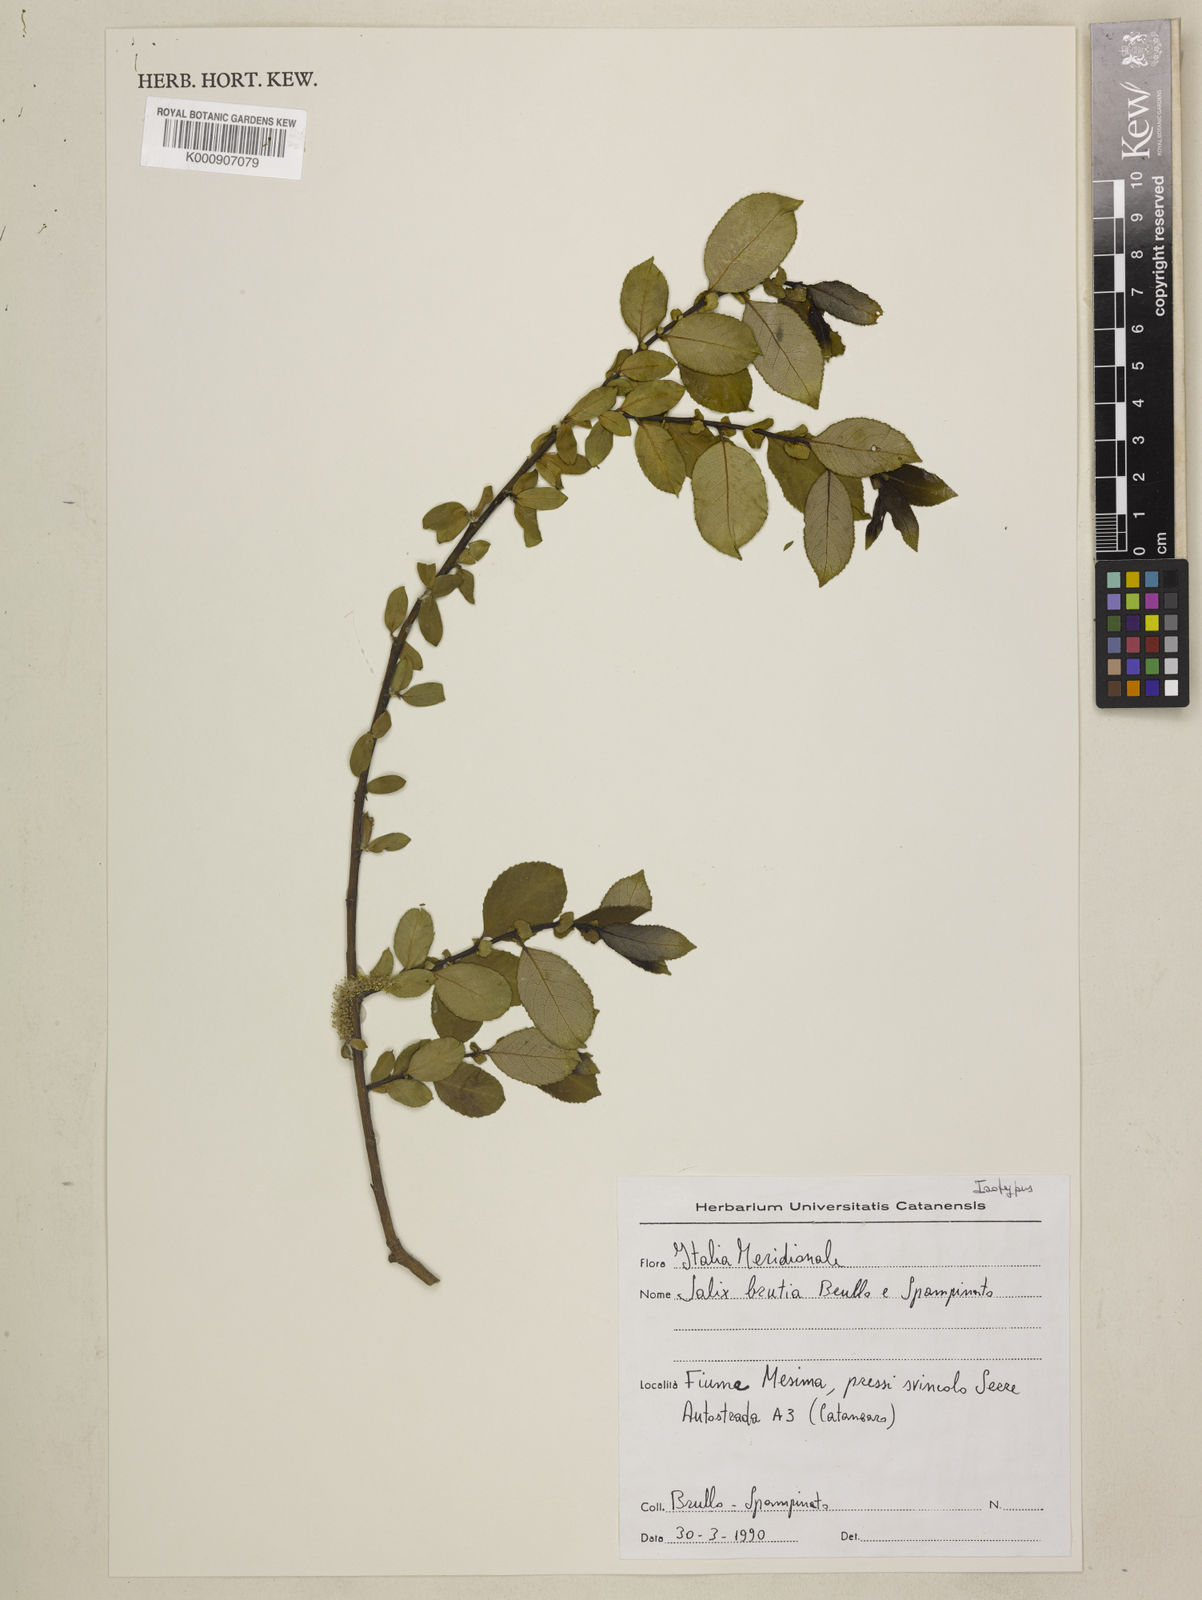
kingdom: Plantae
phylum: Tracheophyta
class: Magnoliopsida
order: Malpighiales
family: Salicaceae
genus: Salix
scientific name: Salix
